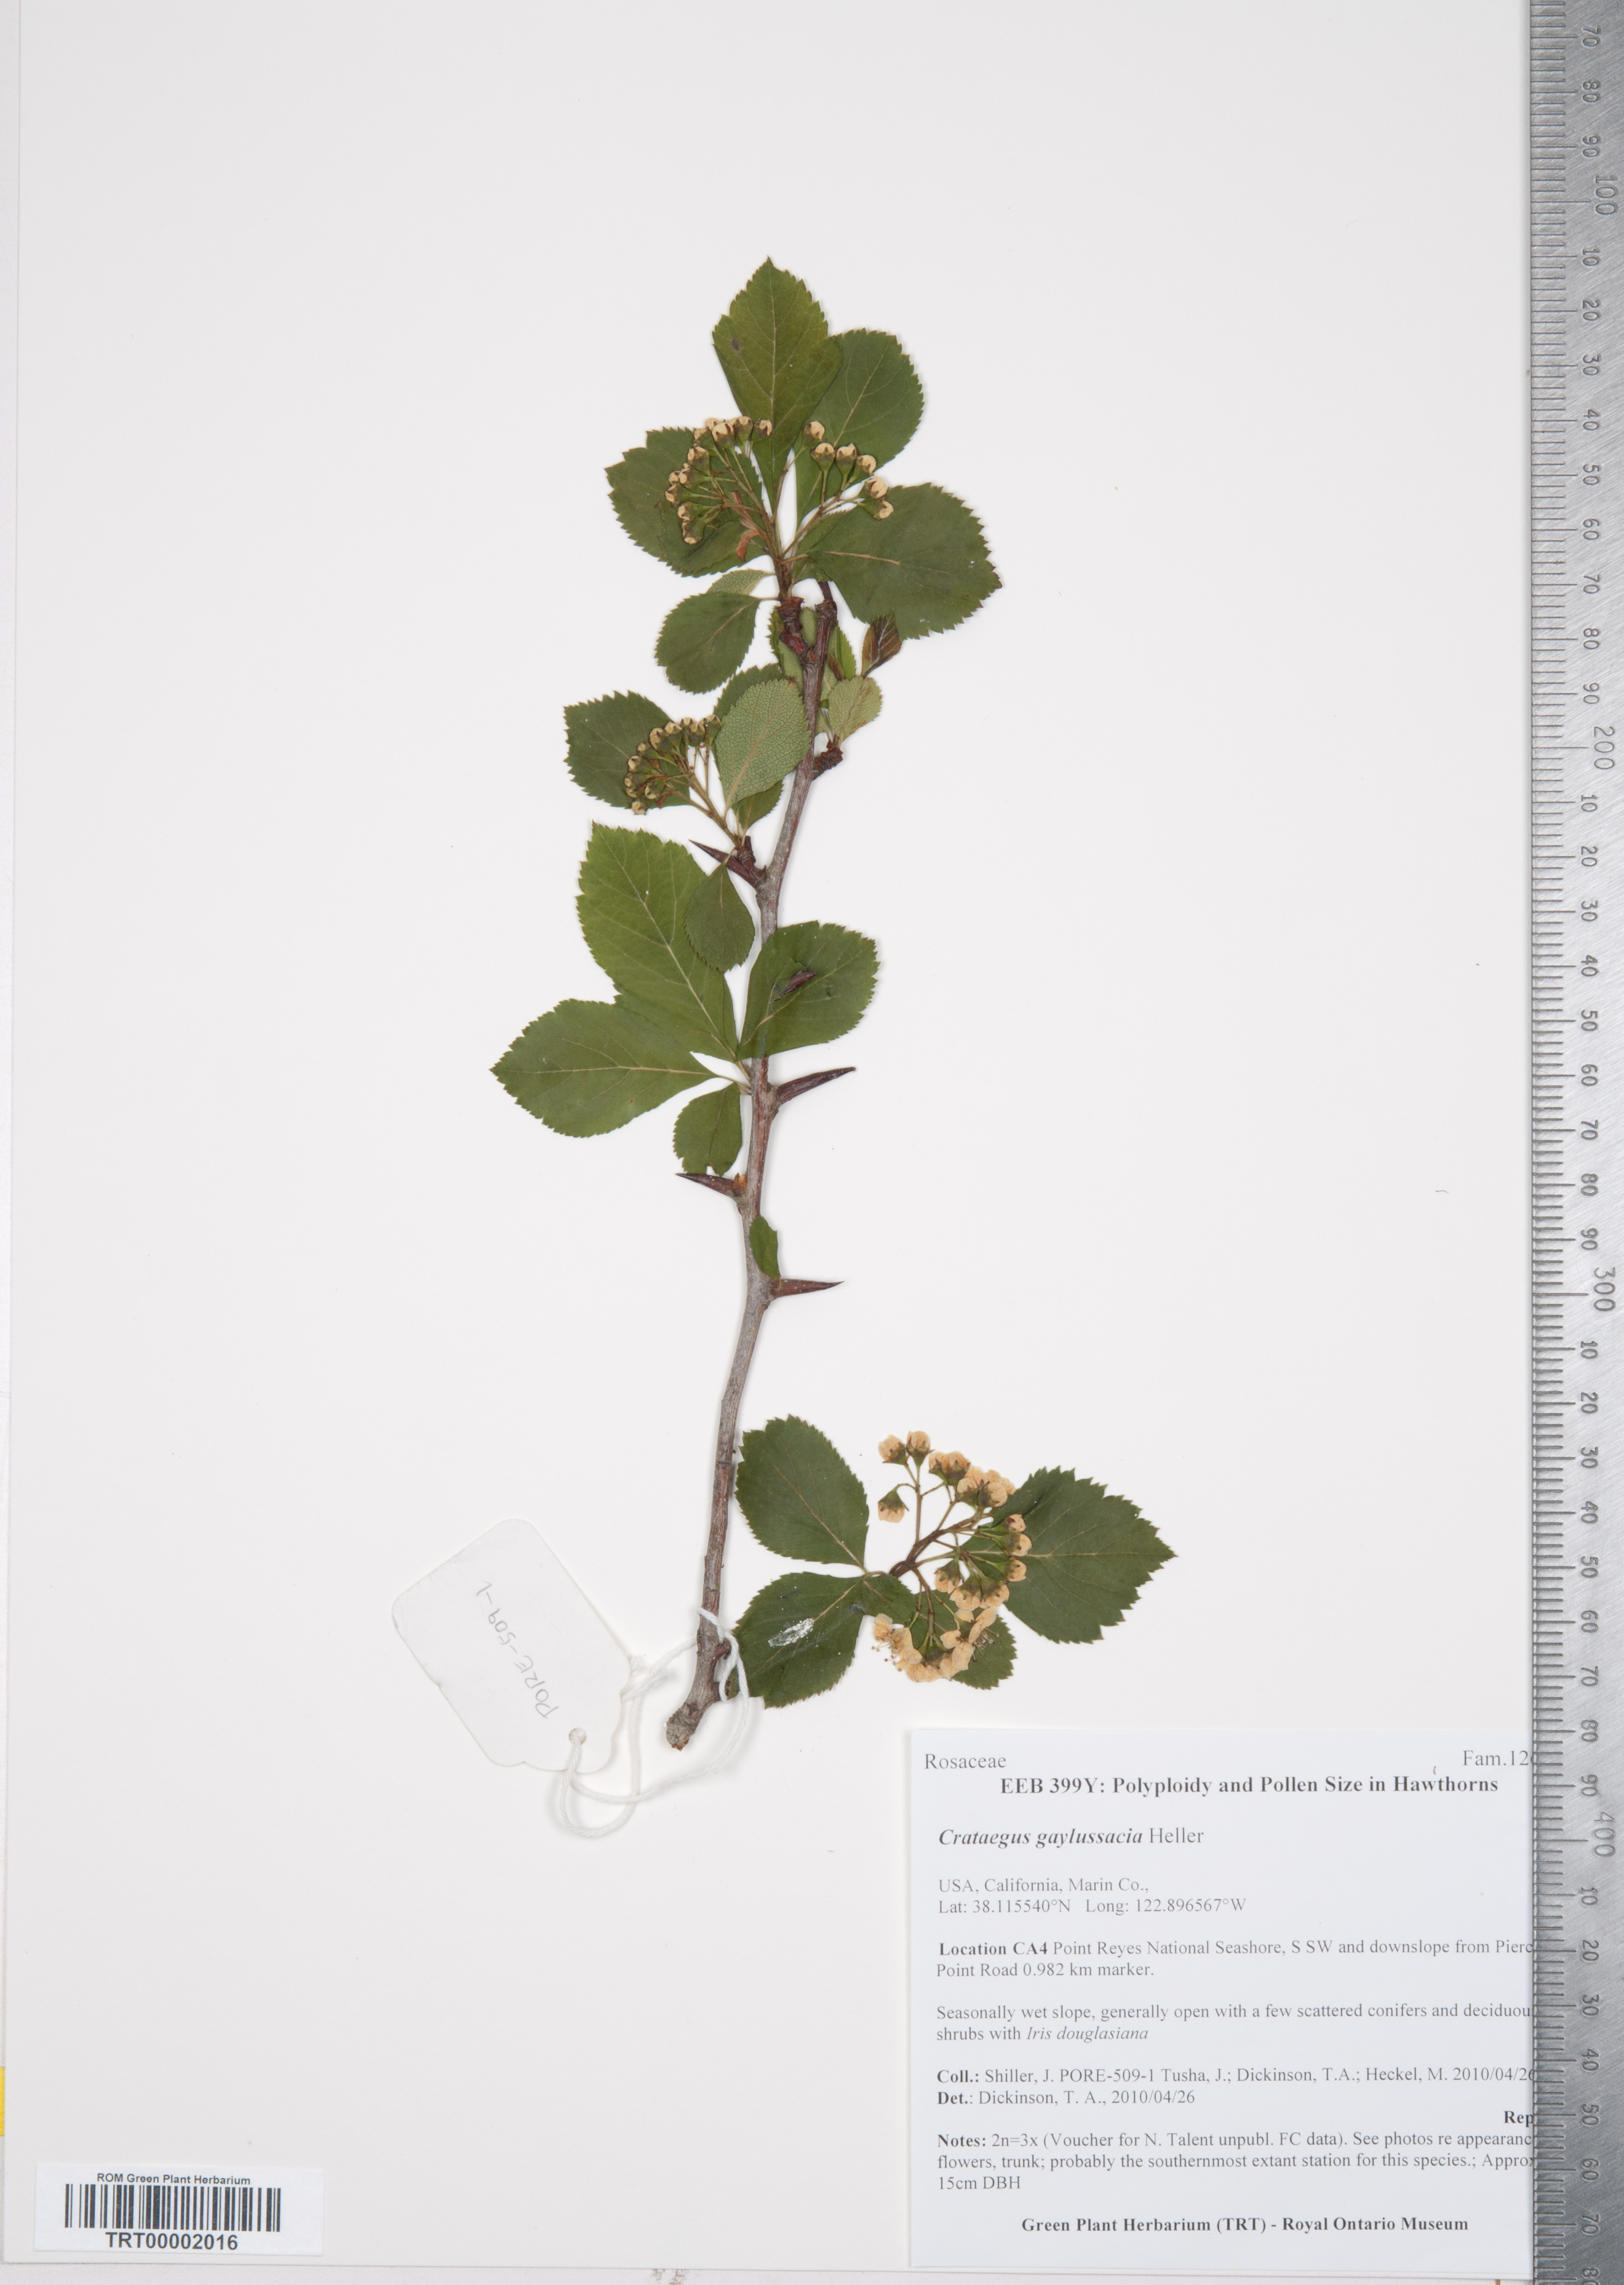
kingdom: Plantae
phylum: Tracheophyta
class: Magnoliopsida
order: Rosales
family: Rosaceae
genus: Crataegus
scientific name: Crataegus gaylussacia
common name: Huckleberry hawthorn
